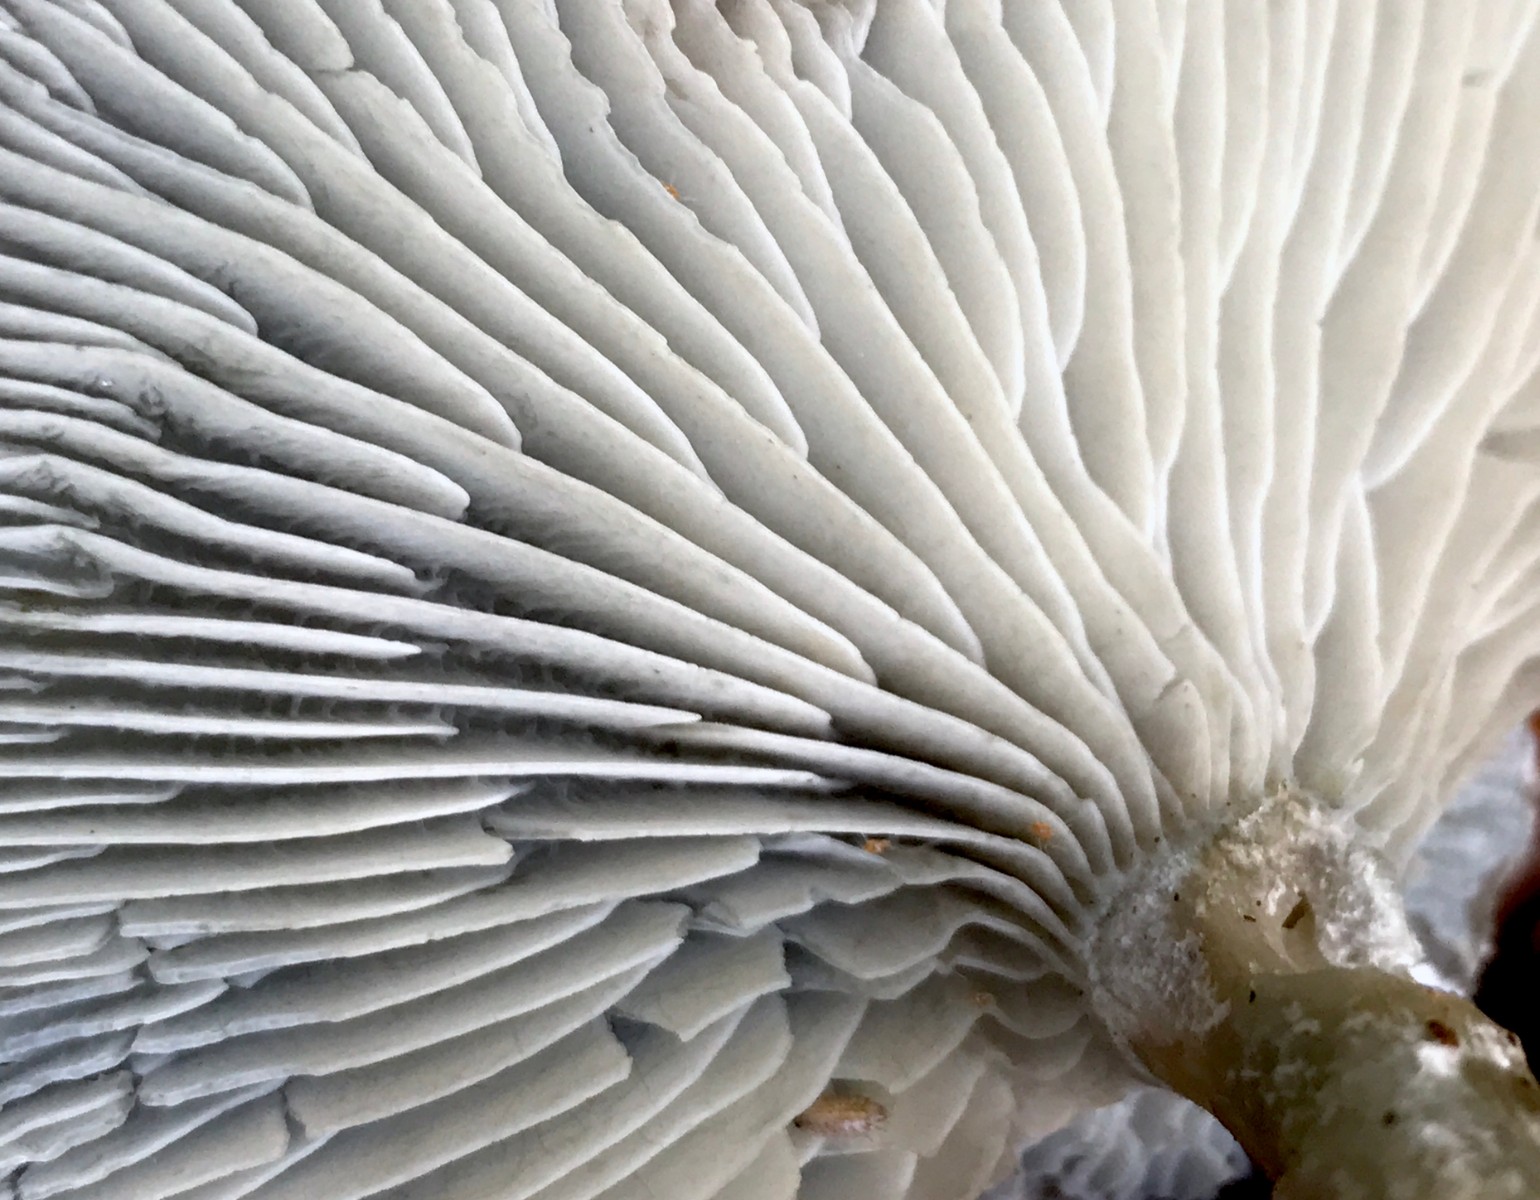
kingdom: Fungi
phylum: Basidiomycota
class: Agaricomycetes
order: Agaricales
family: Tricholomataceae
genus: Clitocybe
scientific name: Clitocybe odora
